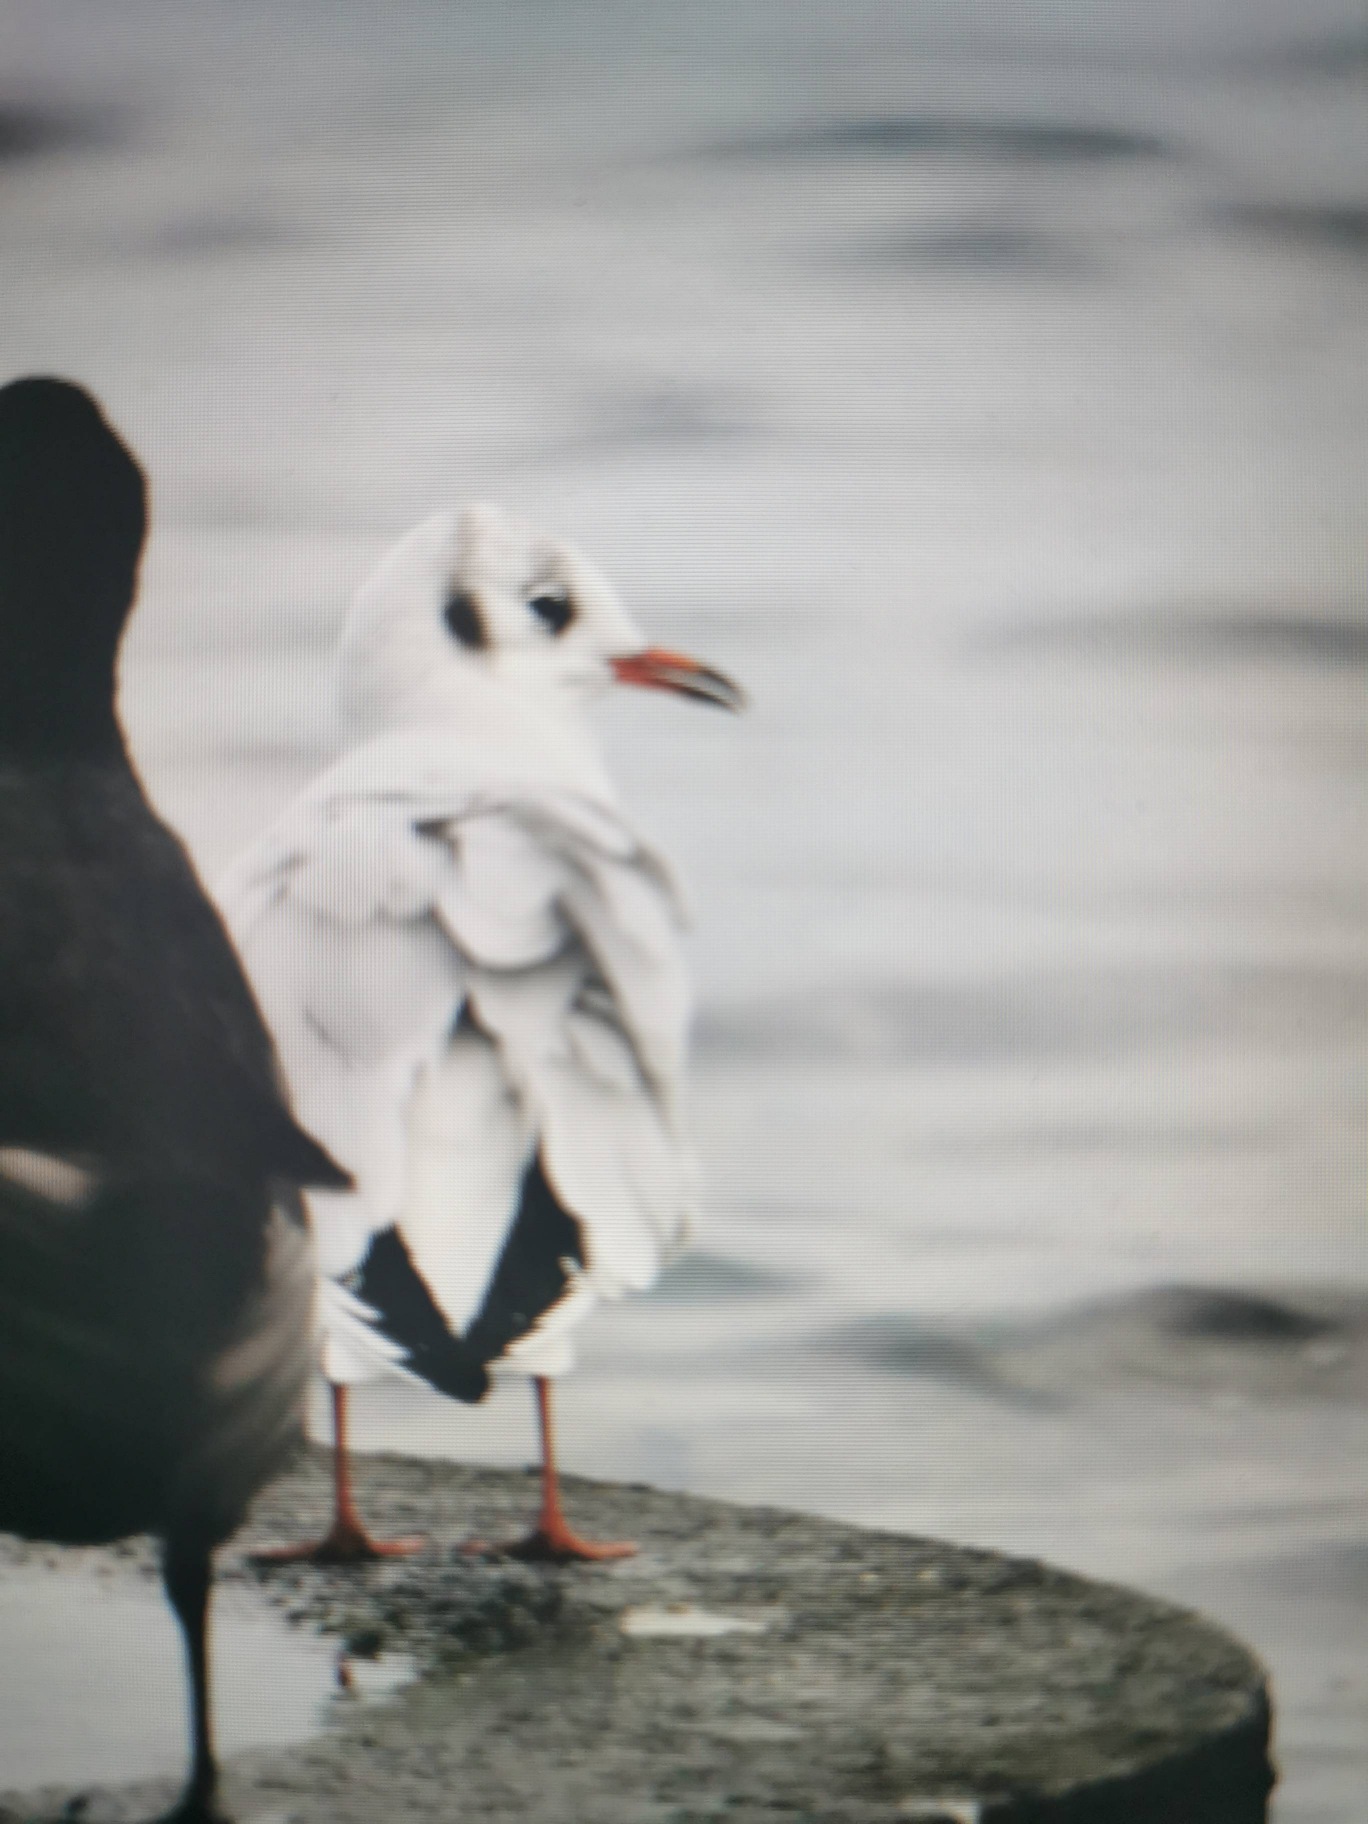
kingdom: Animalia
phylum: Chordata
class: Aves
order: Charadriiformes
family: Laridae
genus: Chroicocephalus
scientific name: Chroicocephalus ridibundus
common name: Hættemåge
